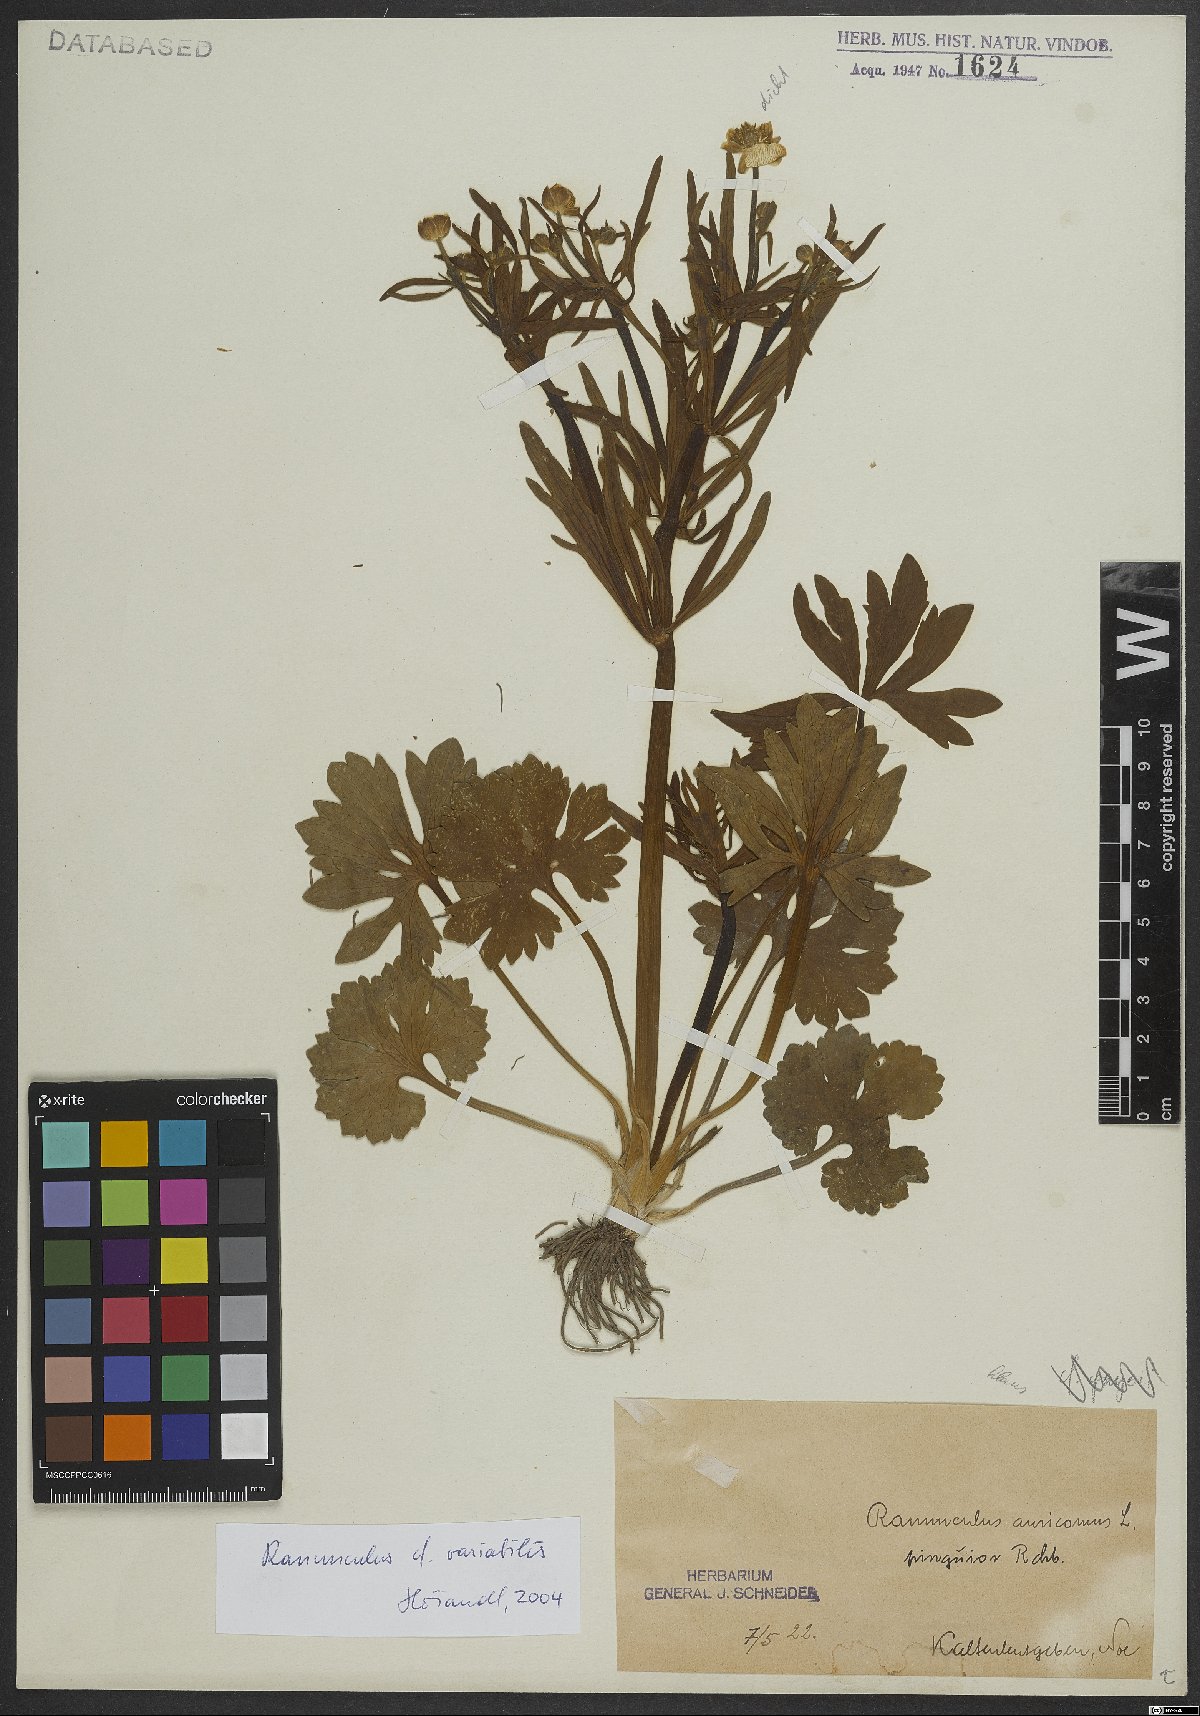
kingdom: Plantae
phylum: Tracheophyta
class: Magnoliopsida
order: Ranunculales
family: Ranunculaceae
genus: Ranunculus
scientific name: Ranunculus variabilis
